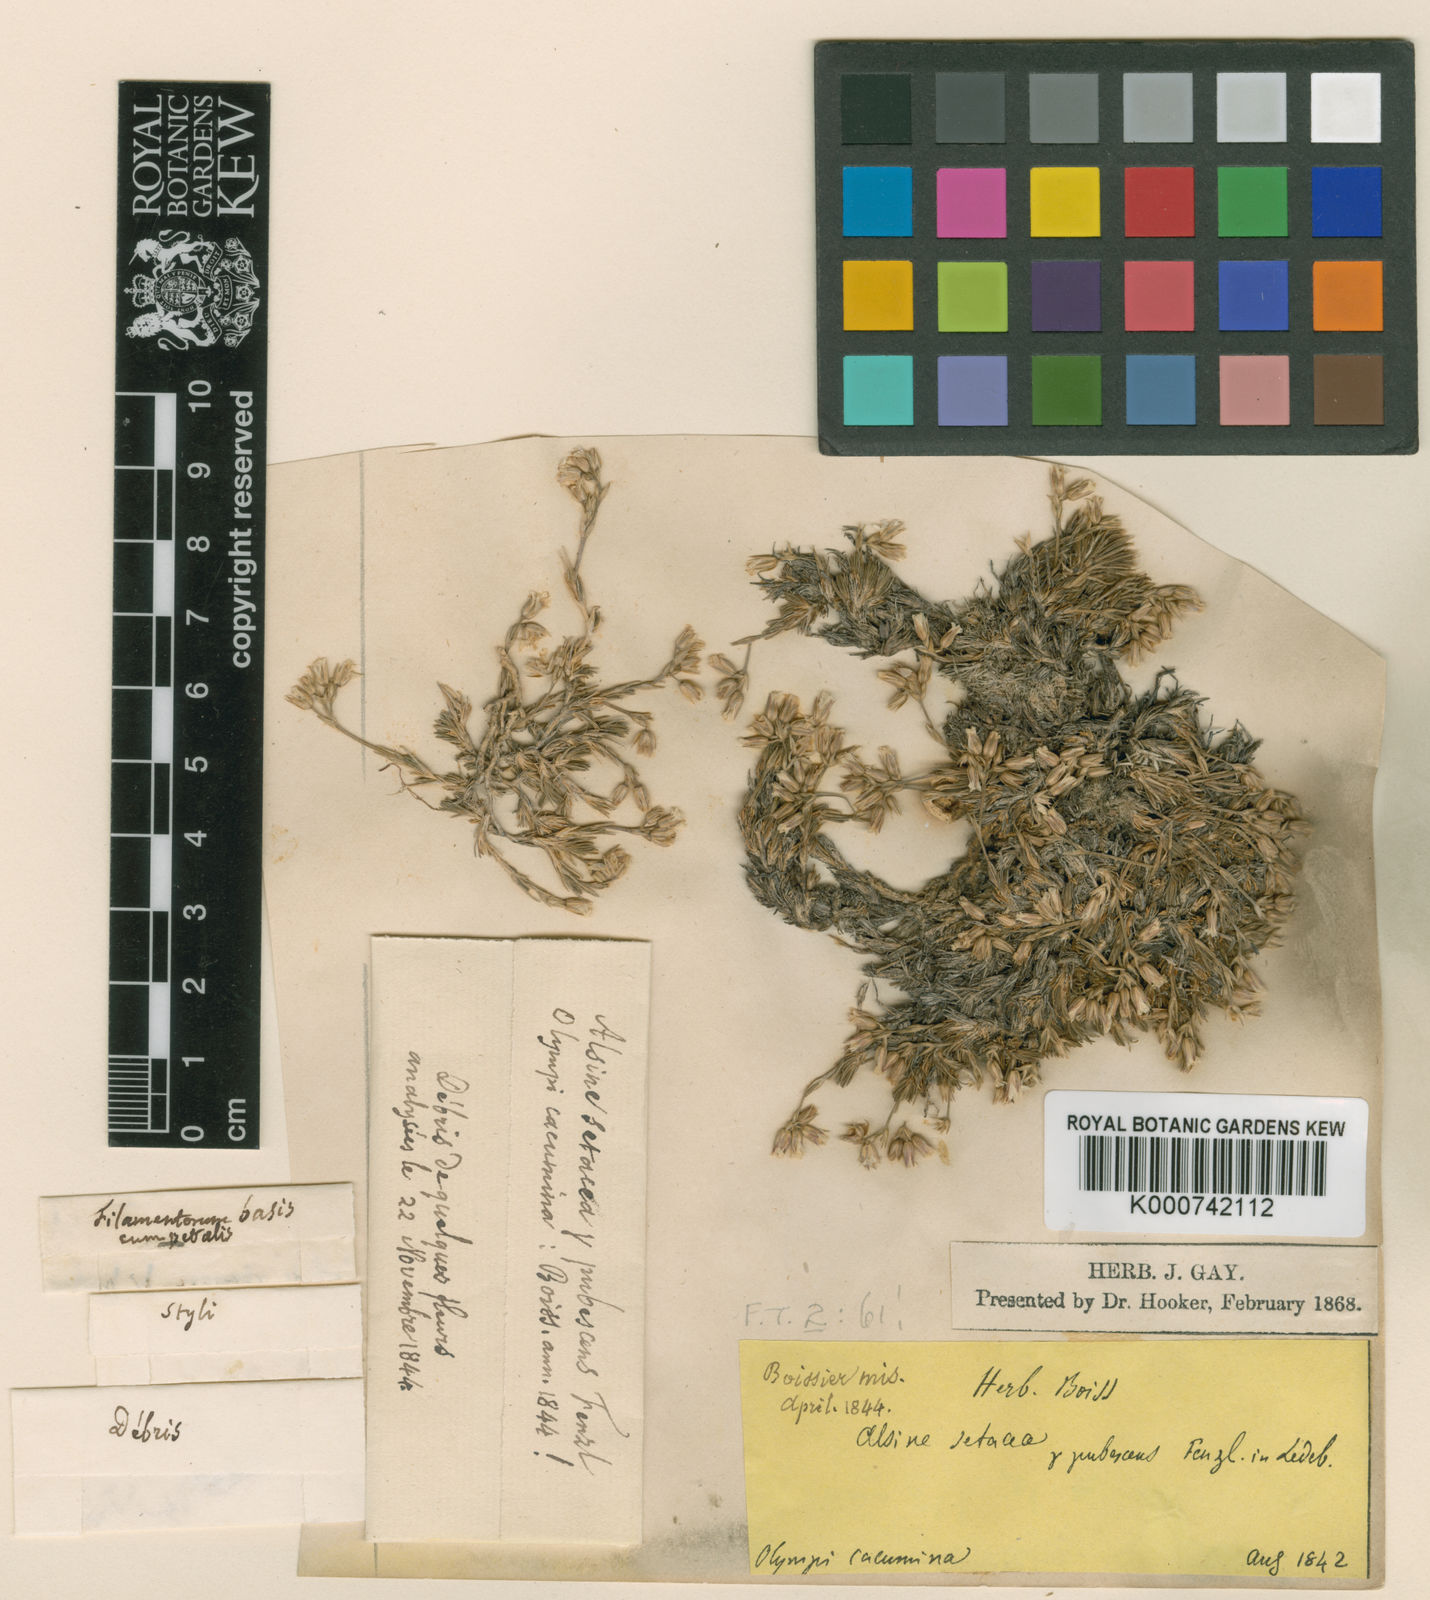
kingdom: Plantae
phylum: Tracheophyta
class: Magnoliopsida
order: Caryophyllales
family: Caryophyllaceae
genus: Minuartia
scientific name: Minuartia erythrosepala
